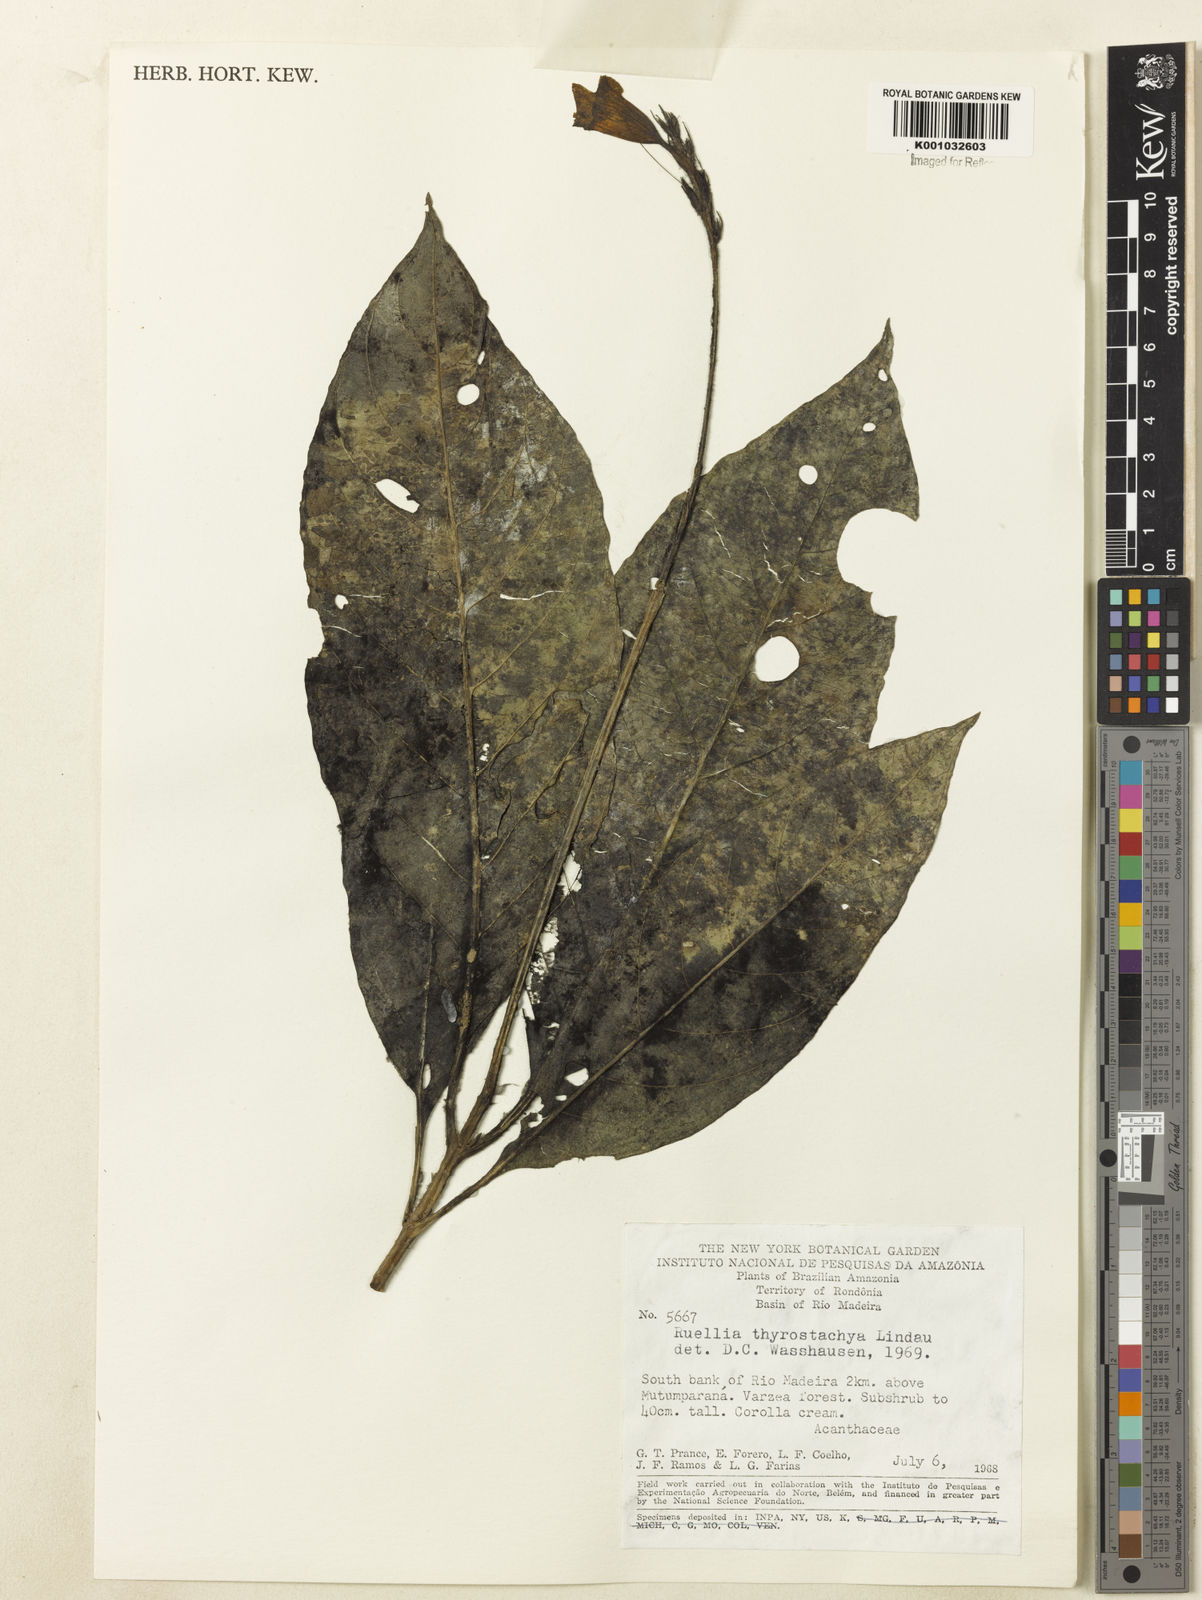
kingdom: Plantae
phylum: Tracheophyta
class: Magnoliopsida
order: Lamiales
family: Acanthaceae
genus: Ruellia
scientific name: Ruellia proxima
